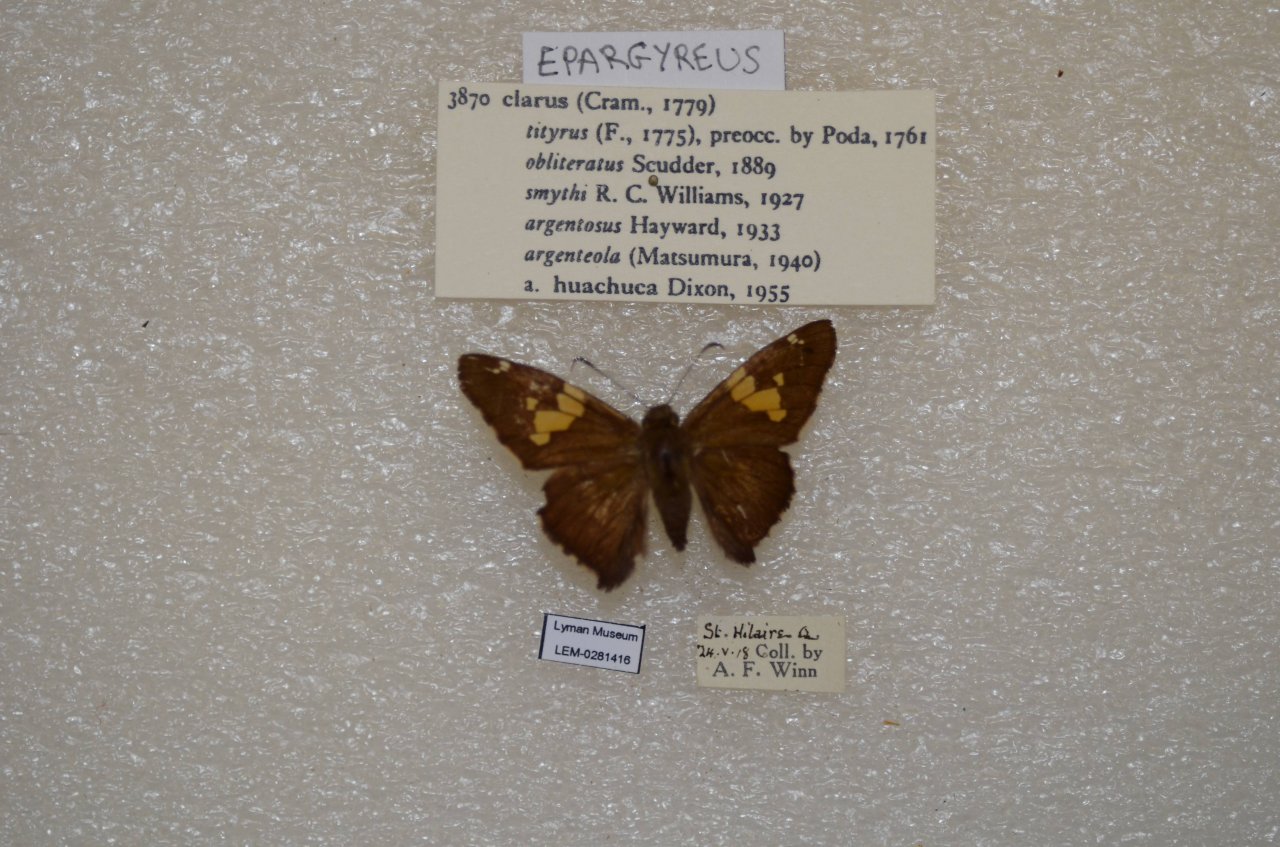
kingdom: Animalia
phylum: Arthropoda
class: Insecta
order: Lepidoptera
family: Hesperiidae
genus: Epargyreus
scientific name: Epargyreus clarus
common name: Silver-spotted Skipper
